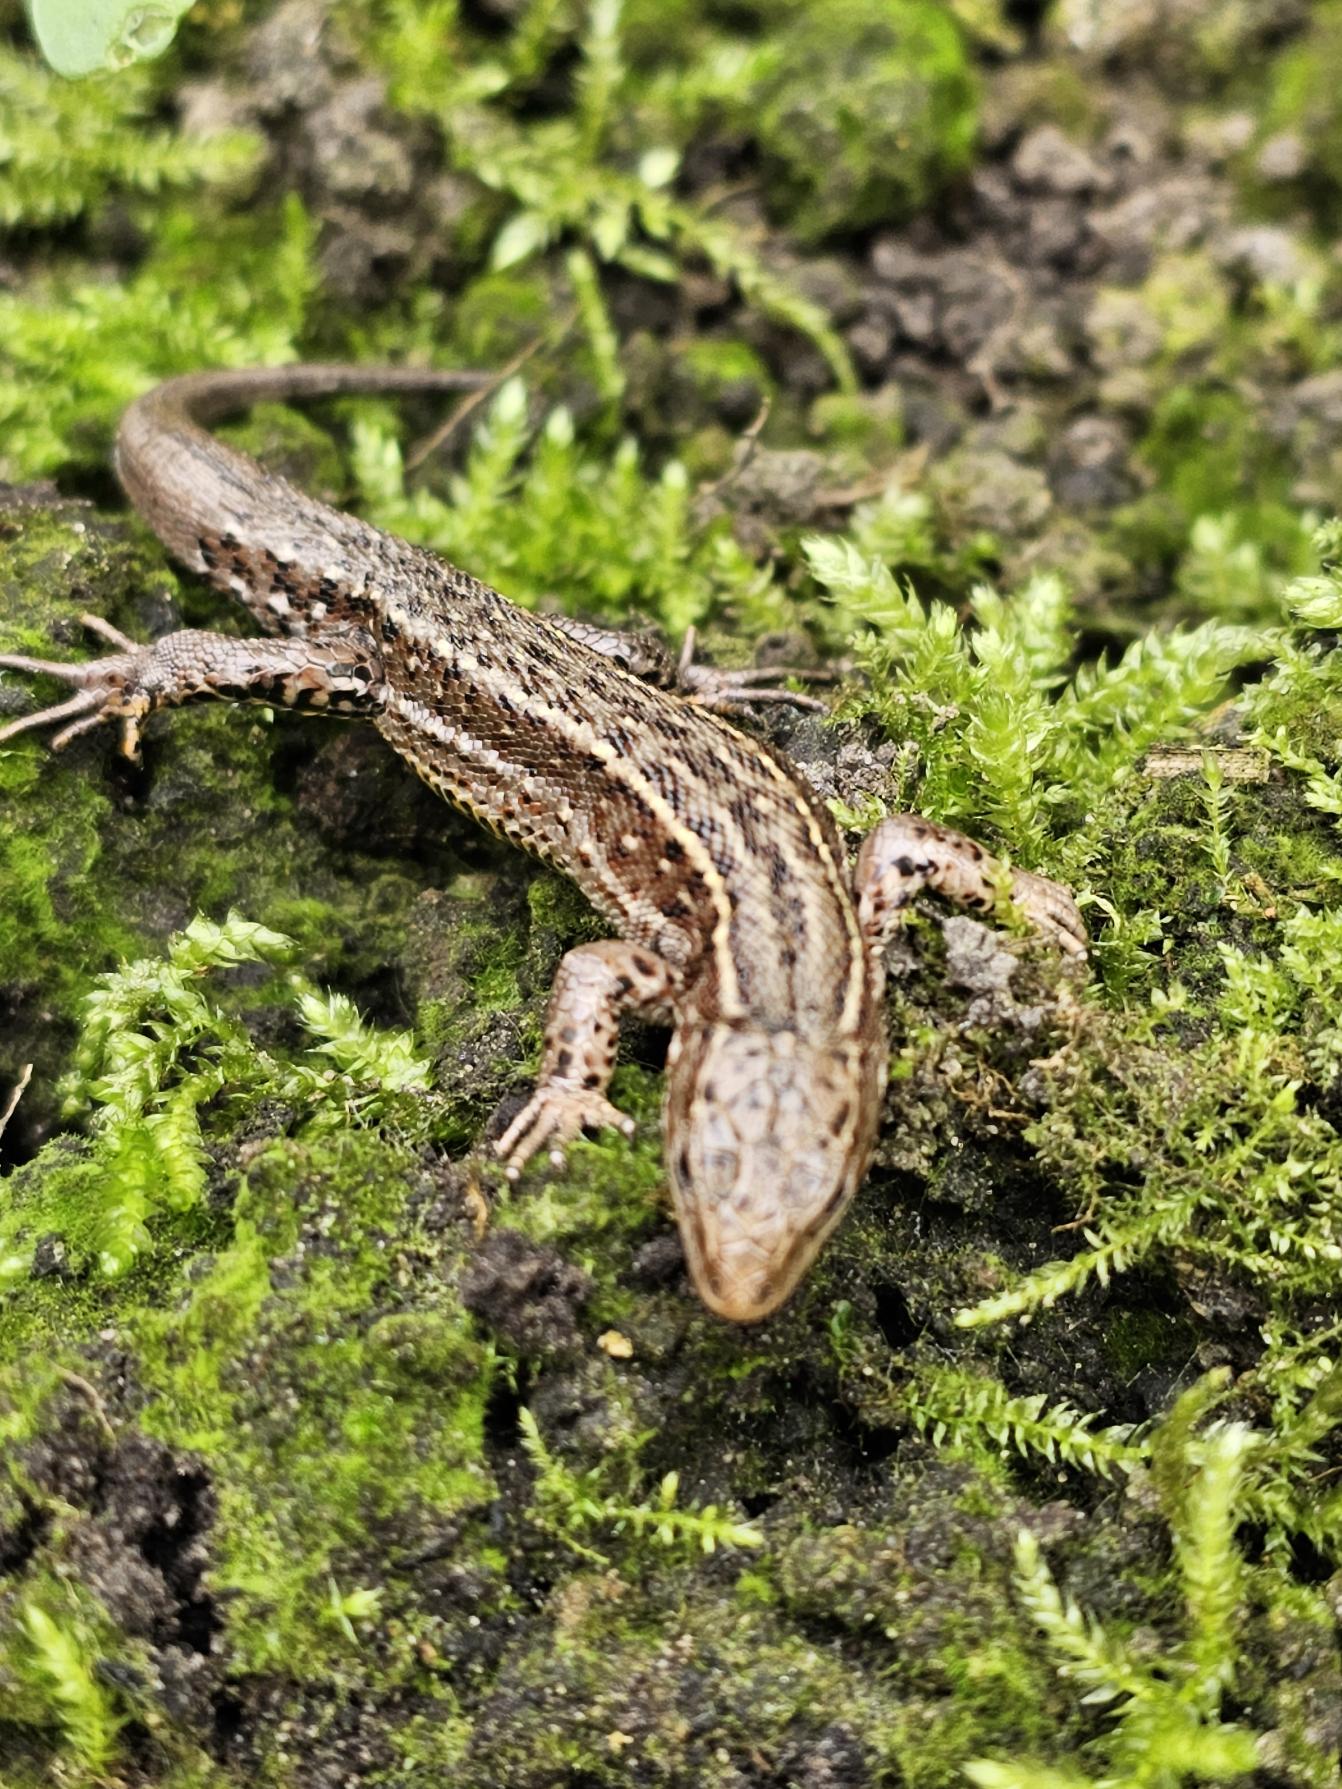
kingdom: Animalia
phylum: Chordata
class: Squamata
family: Lacertidae
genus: Zootoca
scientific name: Zootoca vivipara
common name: Skovfirben
